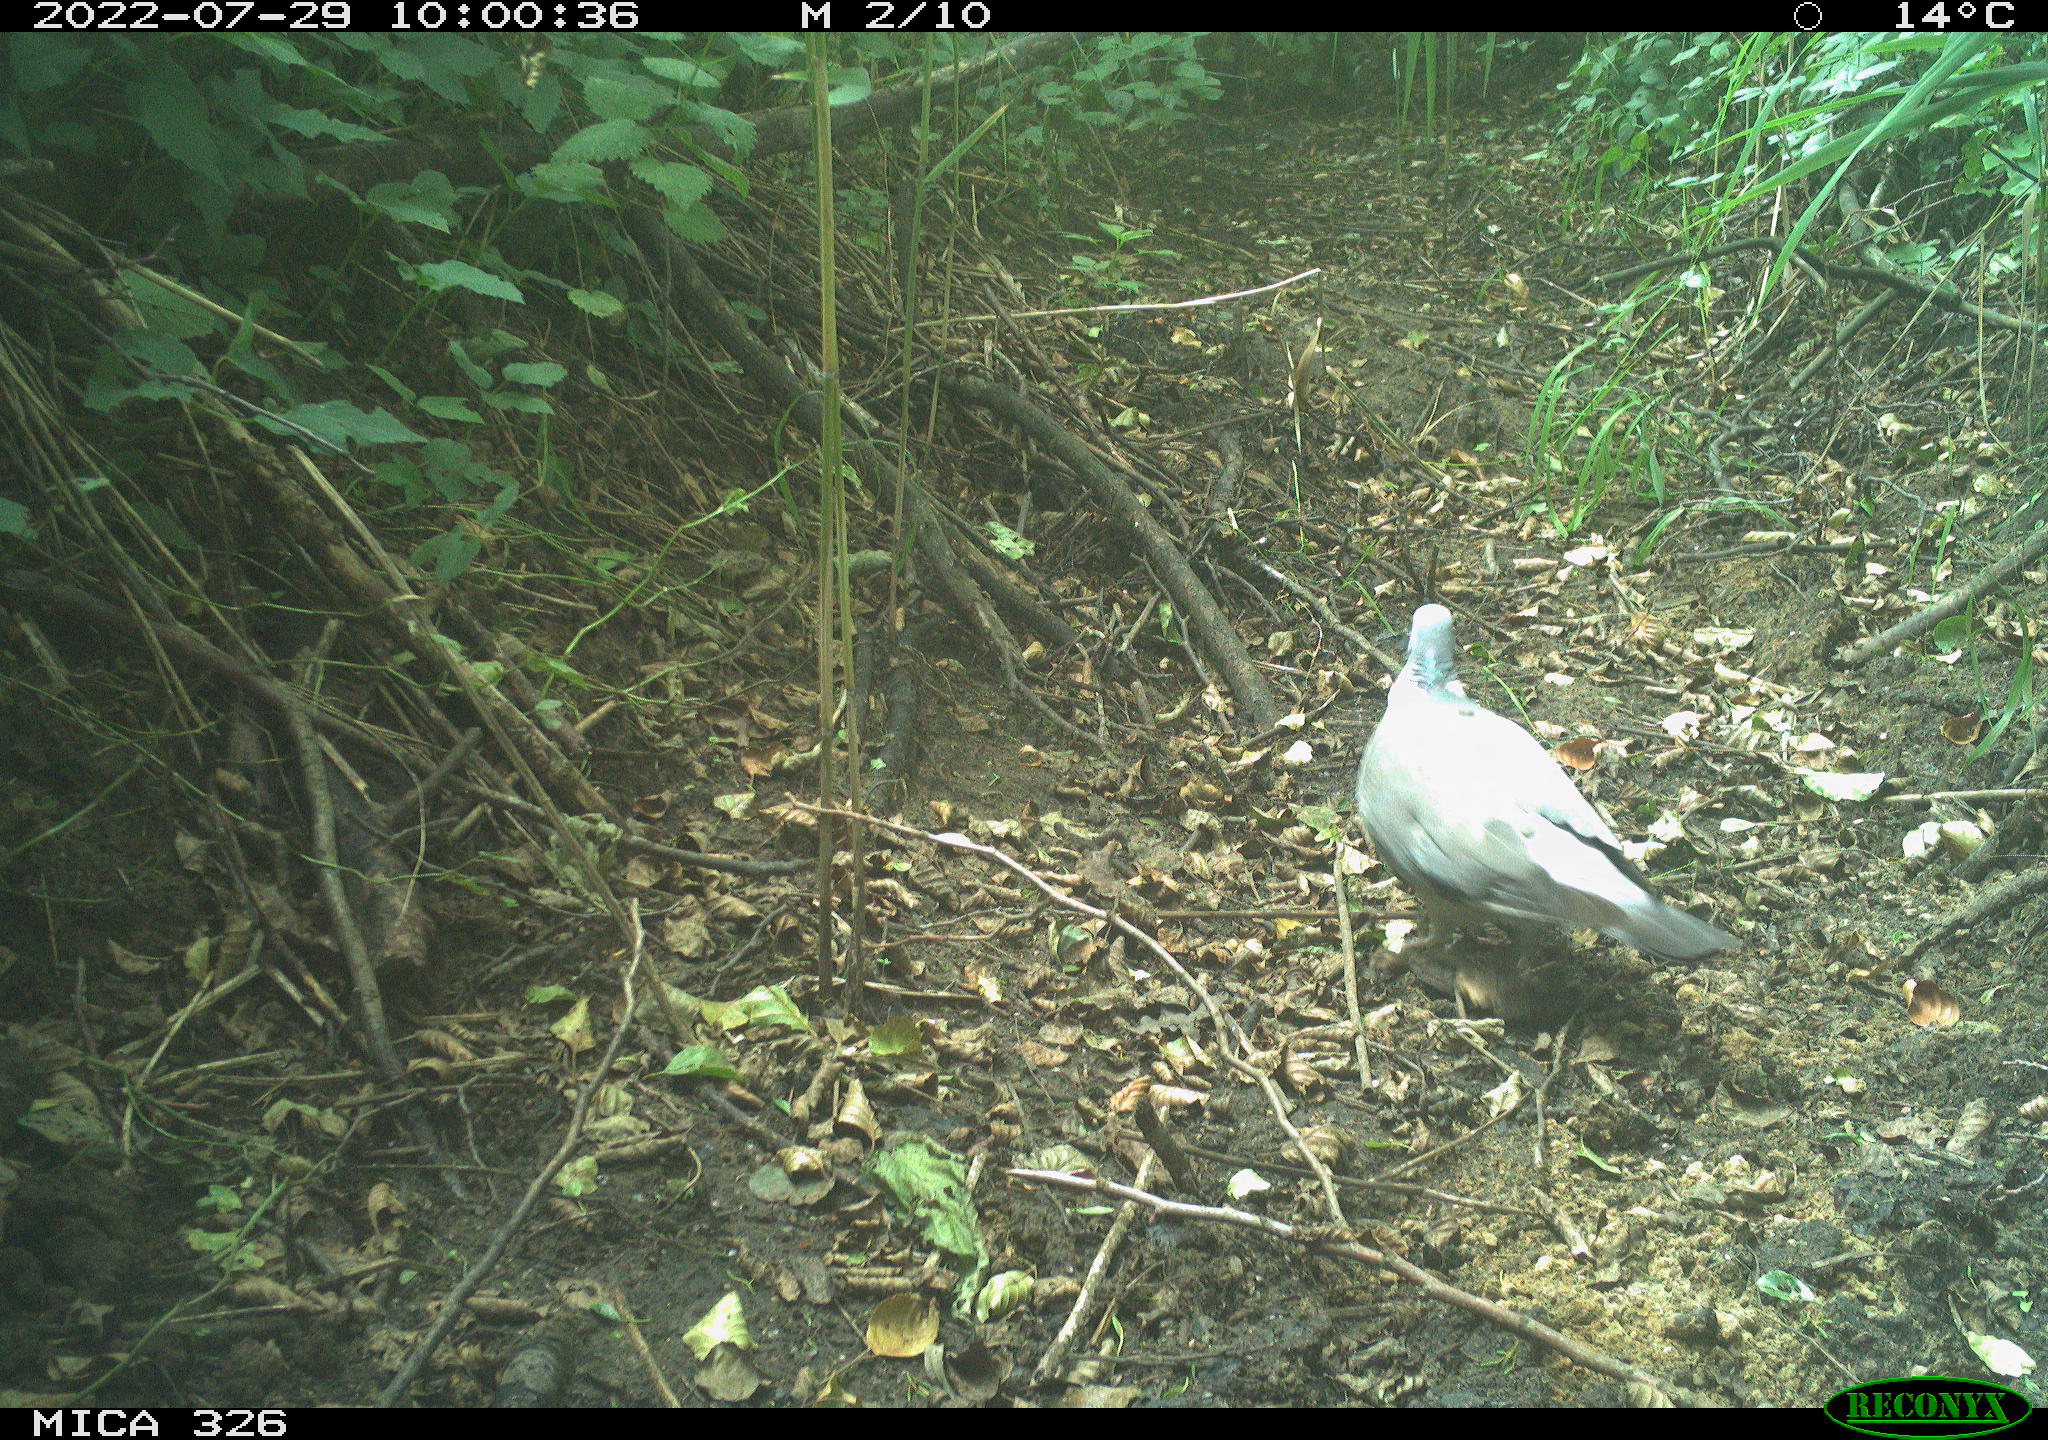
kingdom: Animalia
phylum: Chordata
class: Aves
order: Columbiformes
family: Columbidae
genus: Columba
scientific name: Columba palumbus
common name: Common wood pigeon
